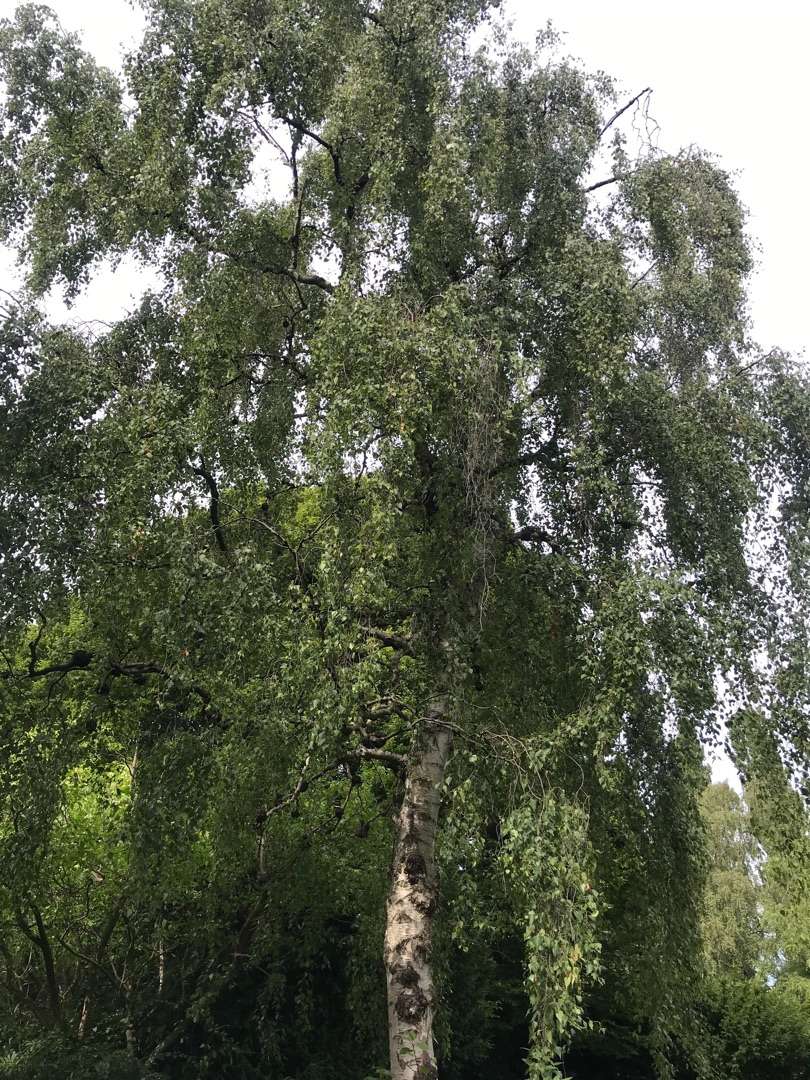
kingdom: Plantae
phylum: Tracheophyta
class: Magnoliopsida
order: Fagales
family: Betulaceae
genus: Betula
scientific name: Betula pendula
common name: Vorte-birk
